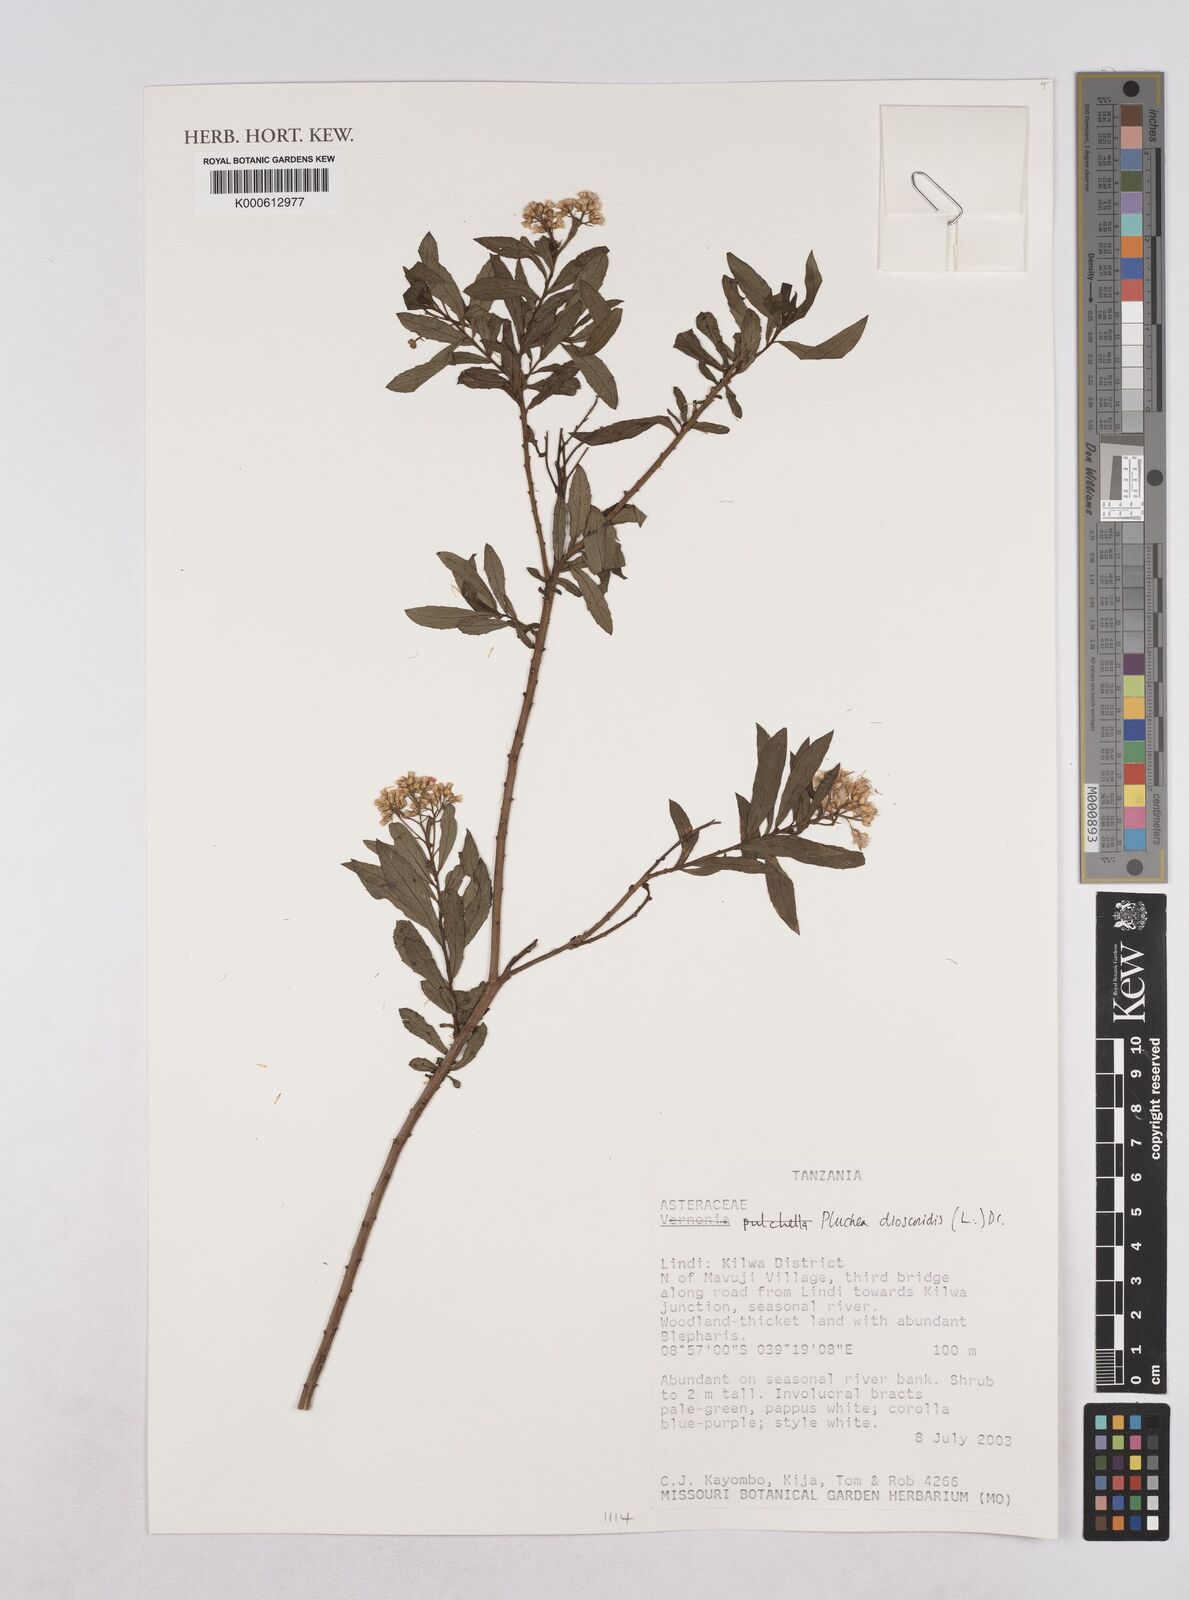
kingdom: Plantae
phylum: Tracheophyta
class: Magnoliopsida
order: Asterales
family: Asteraceae
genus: Pluchea
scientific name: Pluchea dioscoridis
